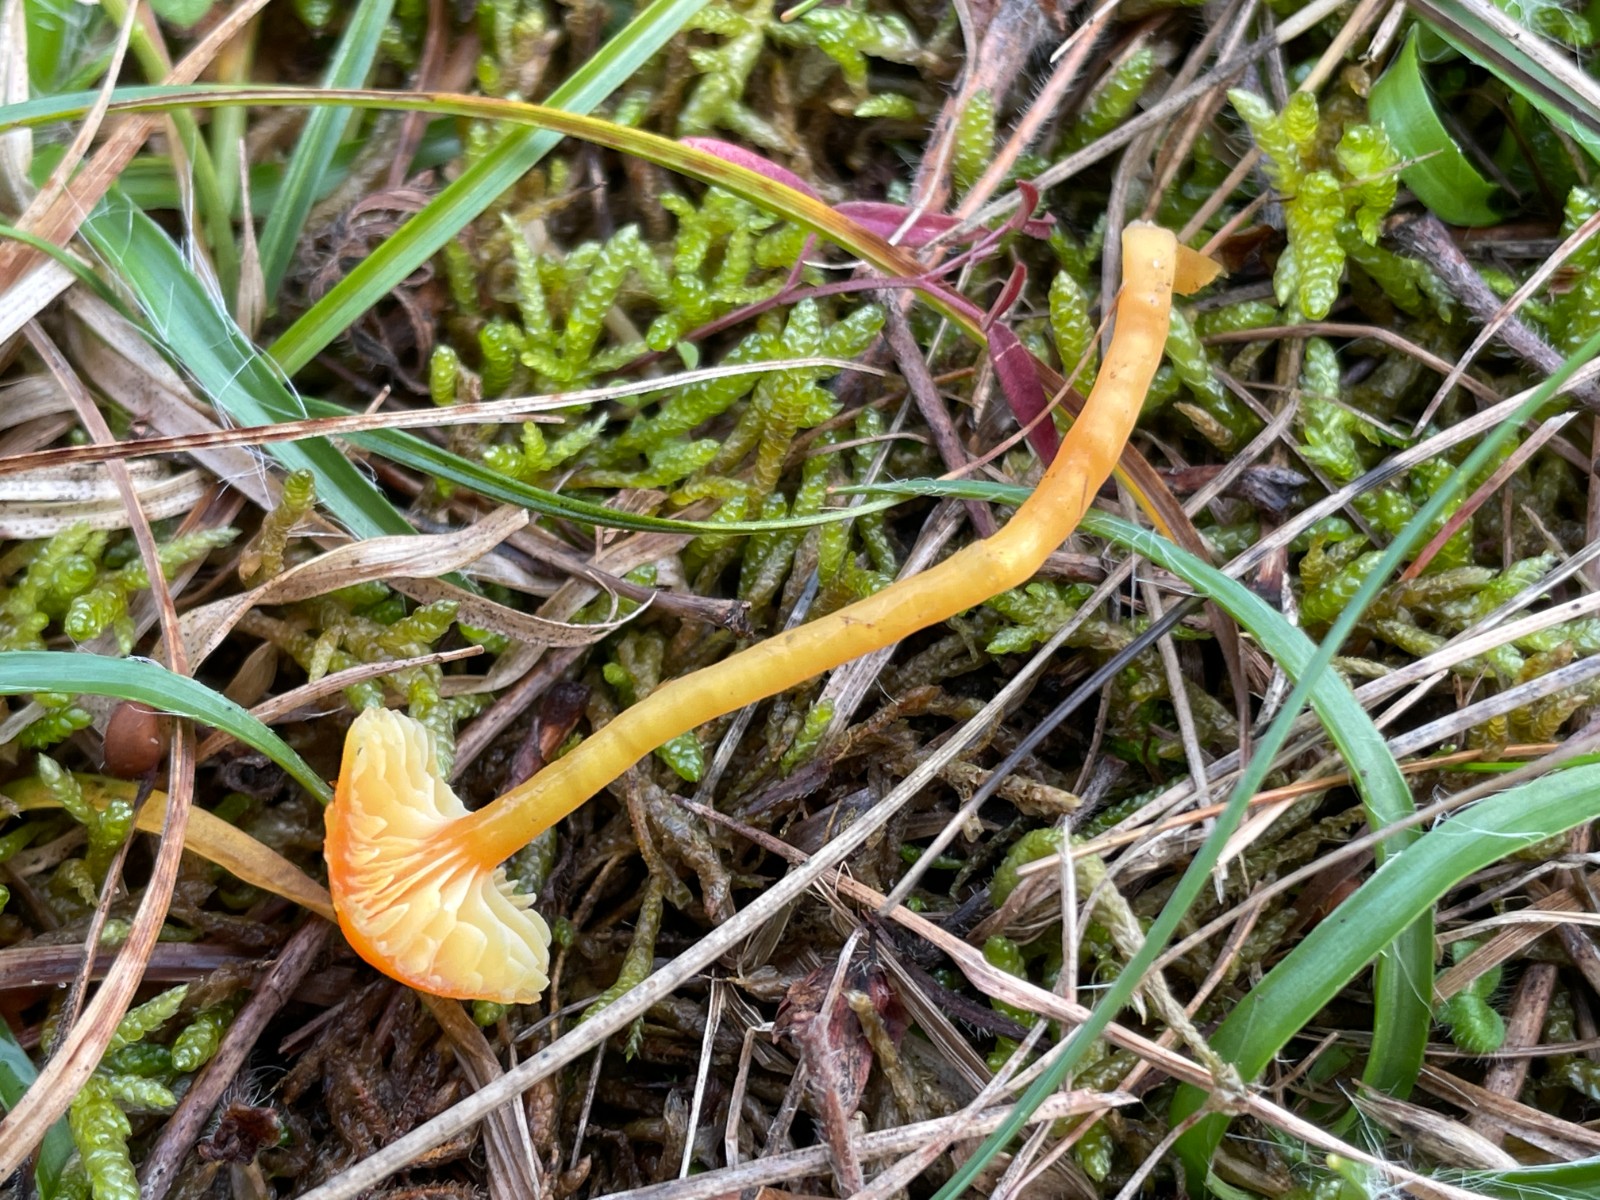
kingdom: Fungi
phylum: Basidiomycota
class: Agaricomycetes
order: Agaricales
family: Hygrophoraceae
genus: Hygrocybe
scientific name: Hygrocybe insipida
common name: liden vokshat
